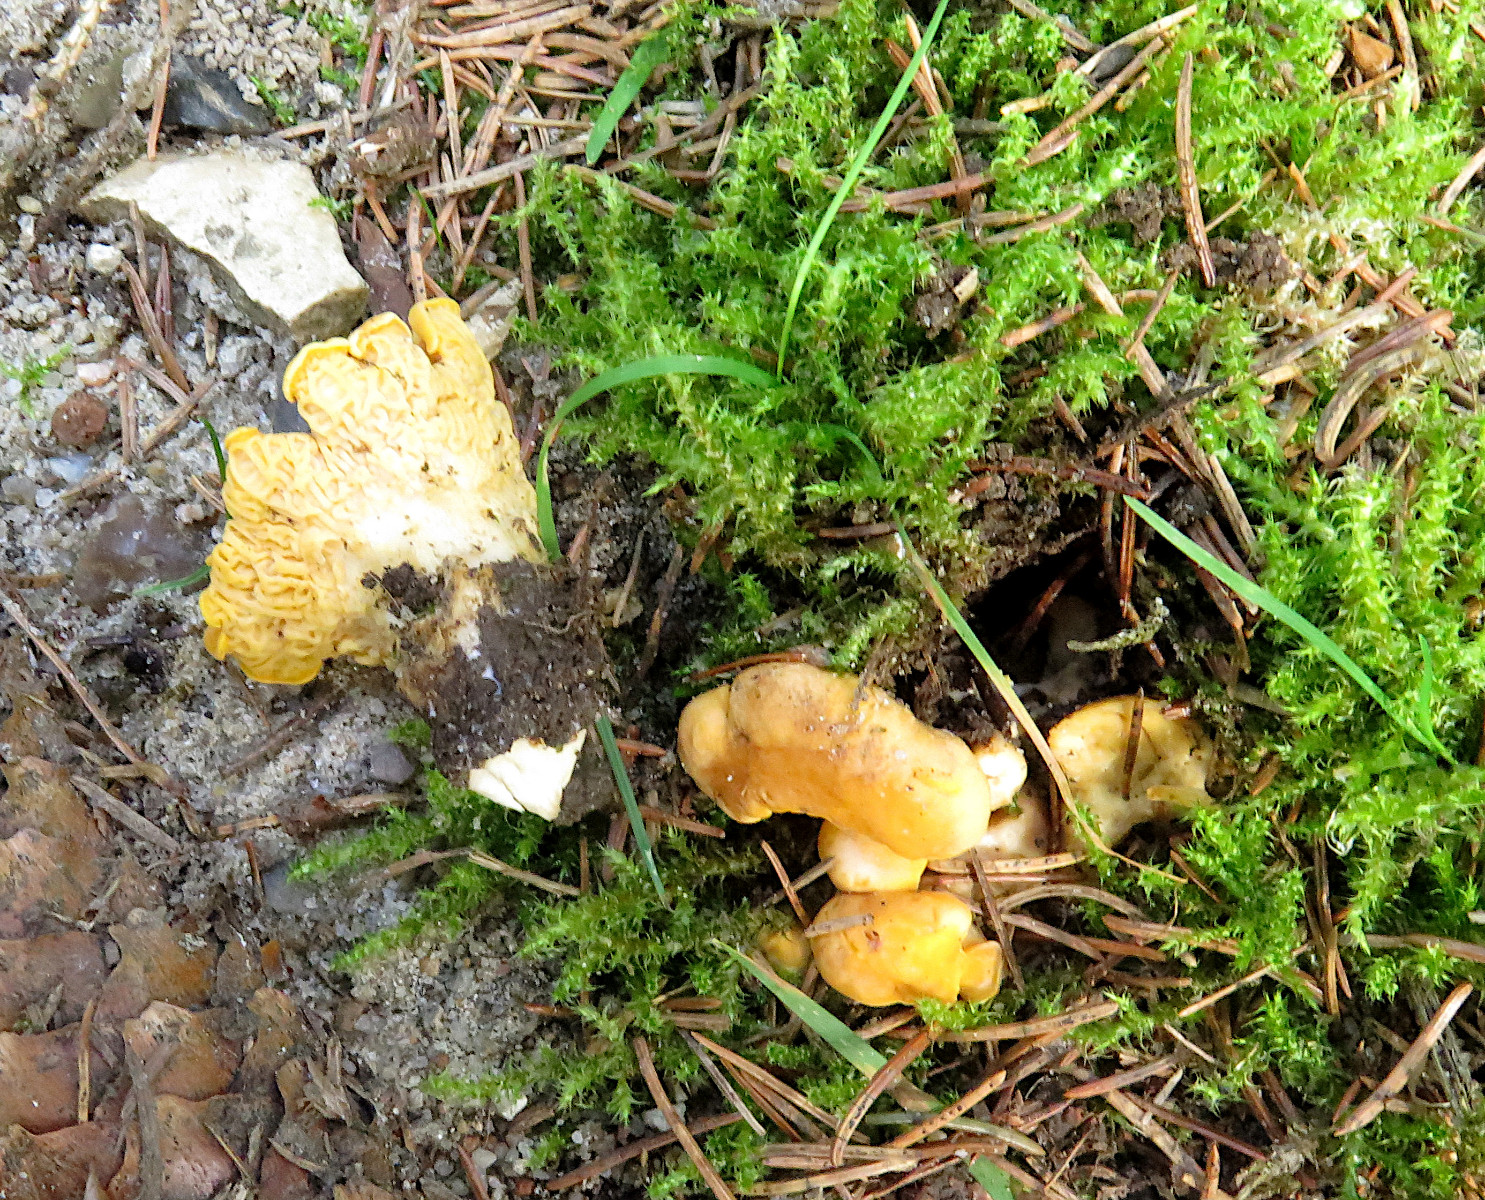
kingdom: Fungi
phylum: Basidiomycota
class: Agaricomycetes
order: Cantharellales
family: Hydnaceae
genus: Cantharellus
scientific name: Cantharellus cibarius
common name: almindelig kantarel
